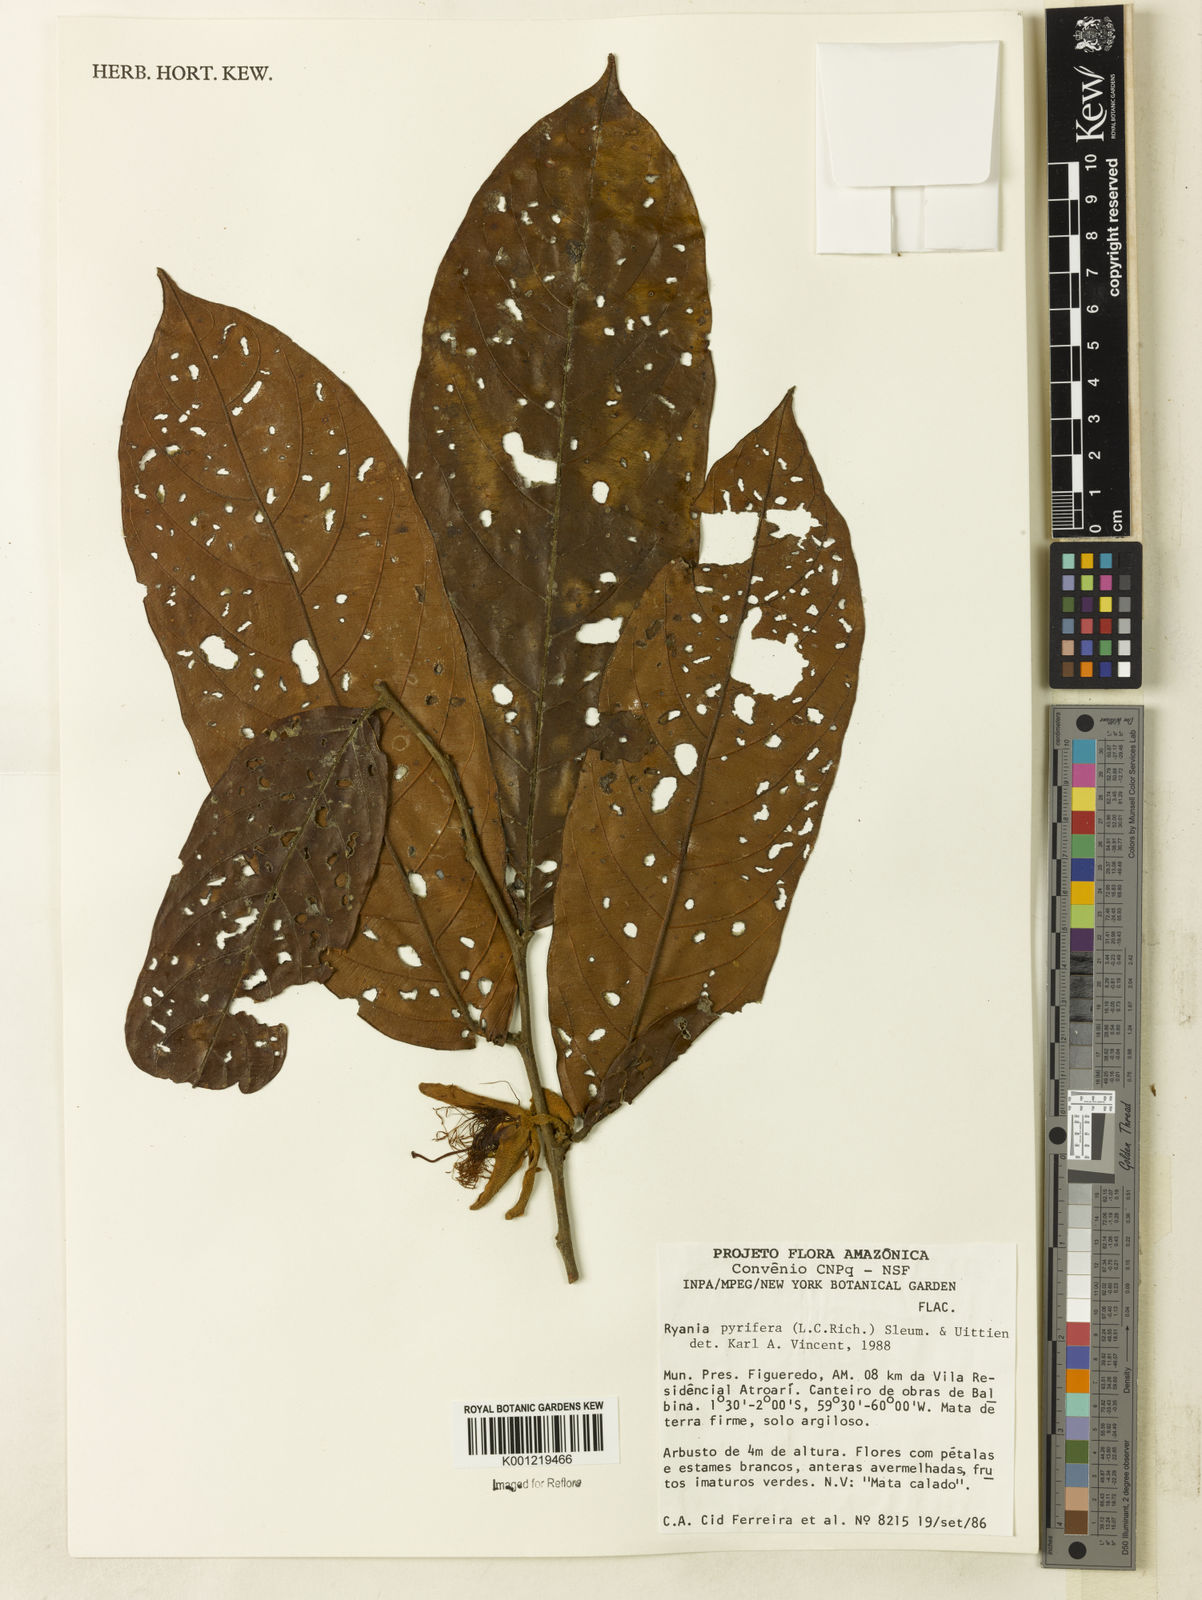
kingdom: Plantae
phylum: Tracheophyta
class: Magnoliopsida
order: Malpighiales
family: Salicaceae
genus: Ryania
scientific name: Ryania pyrifera
